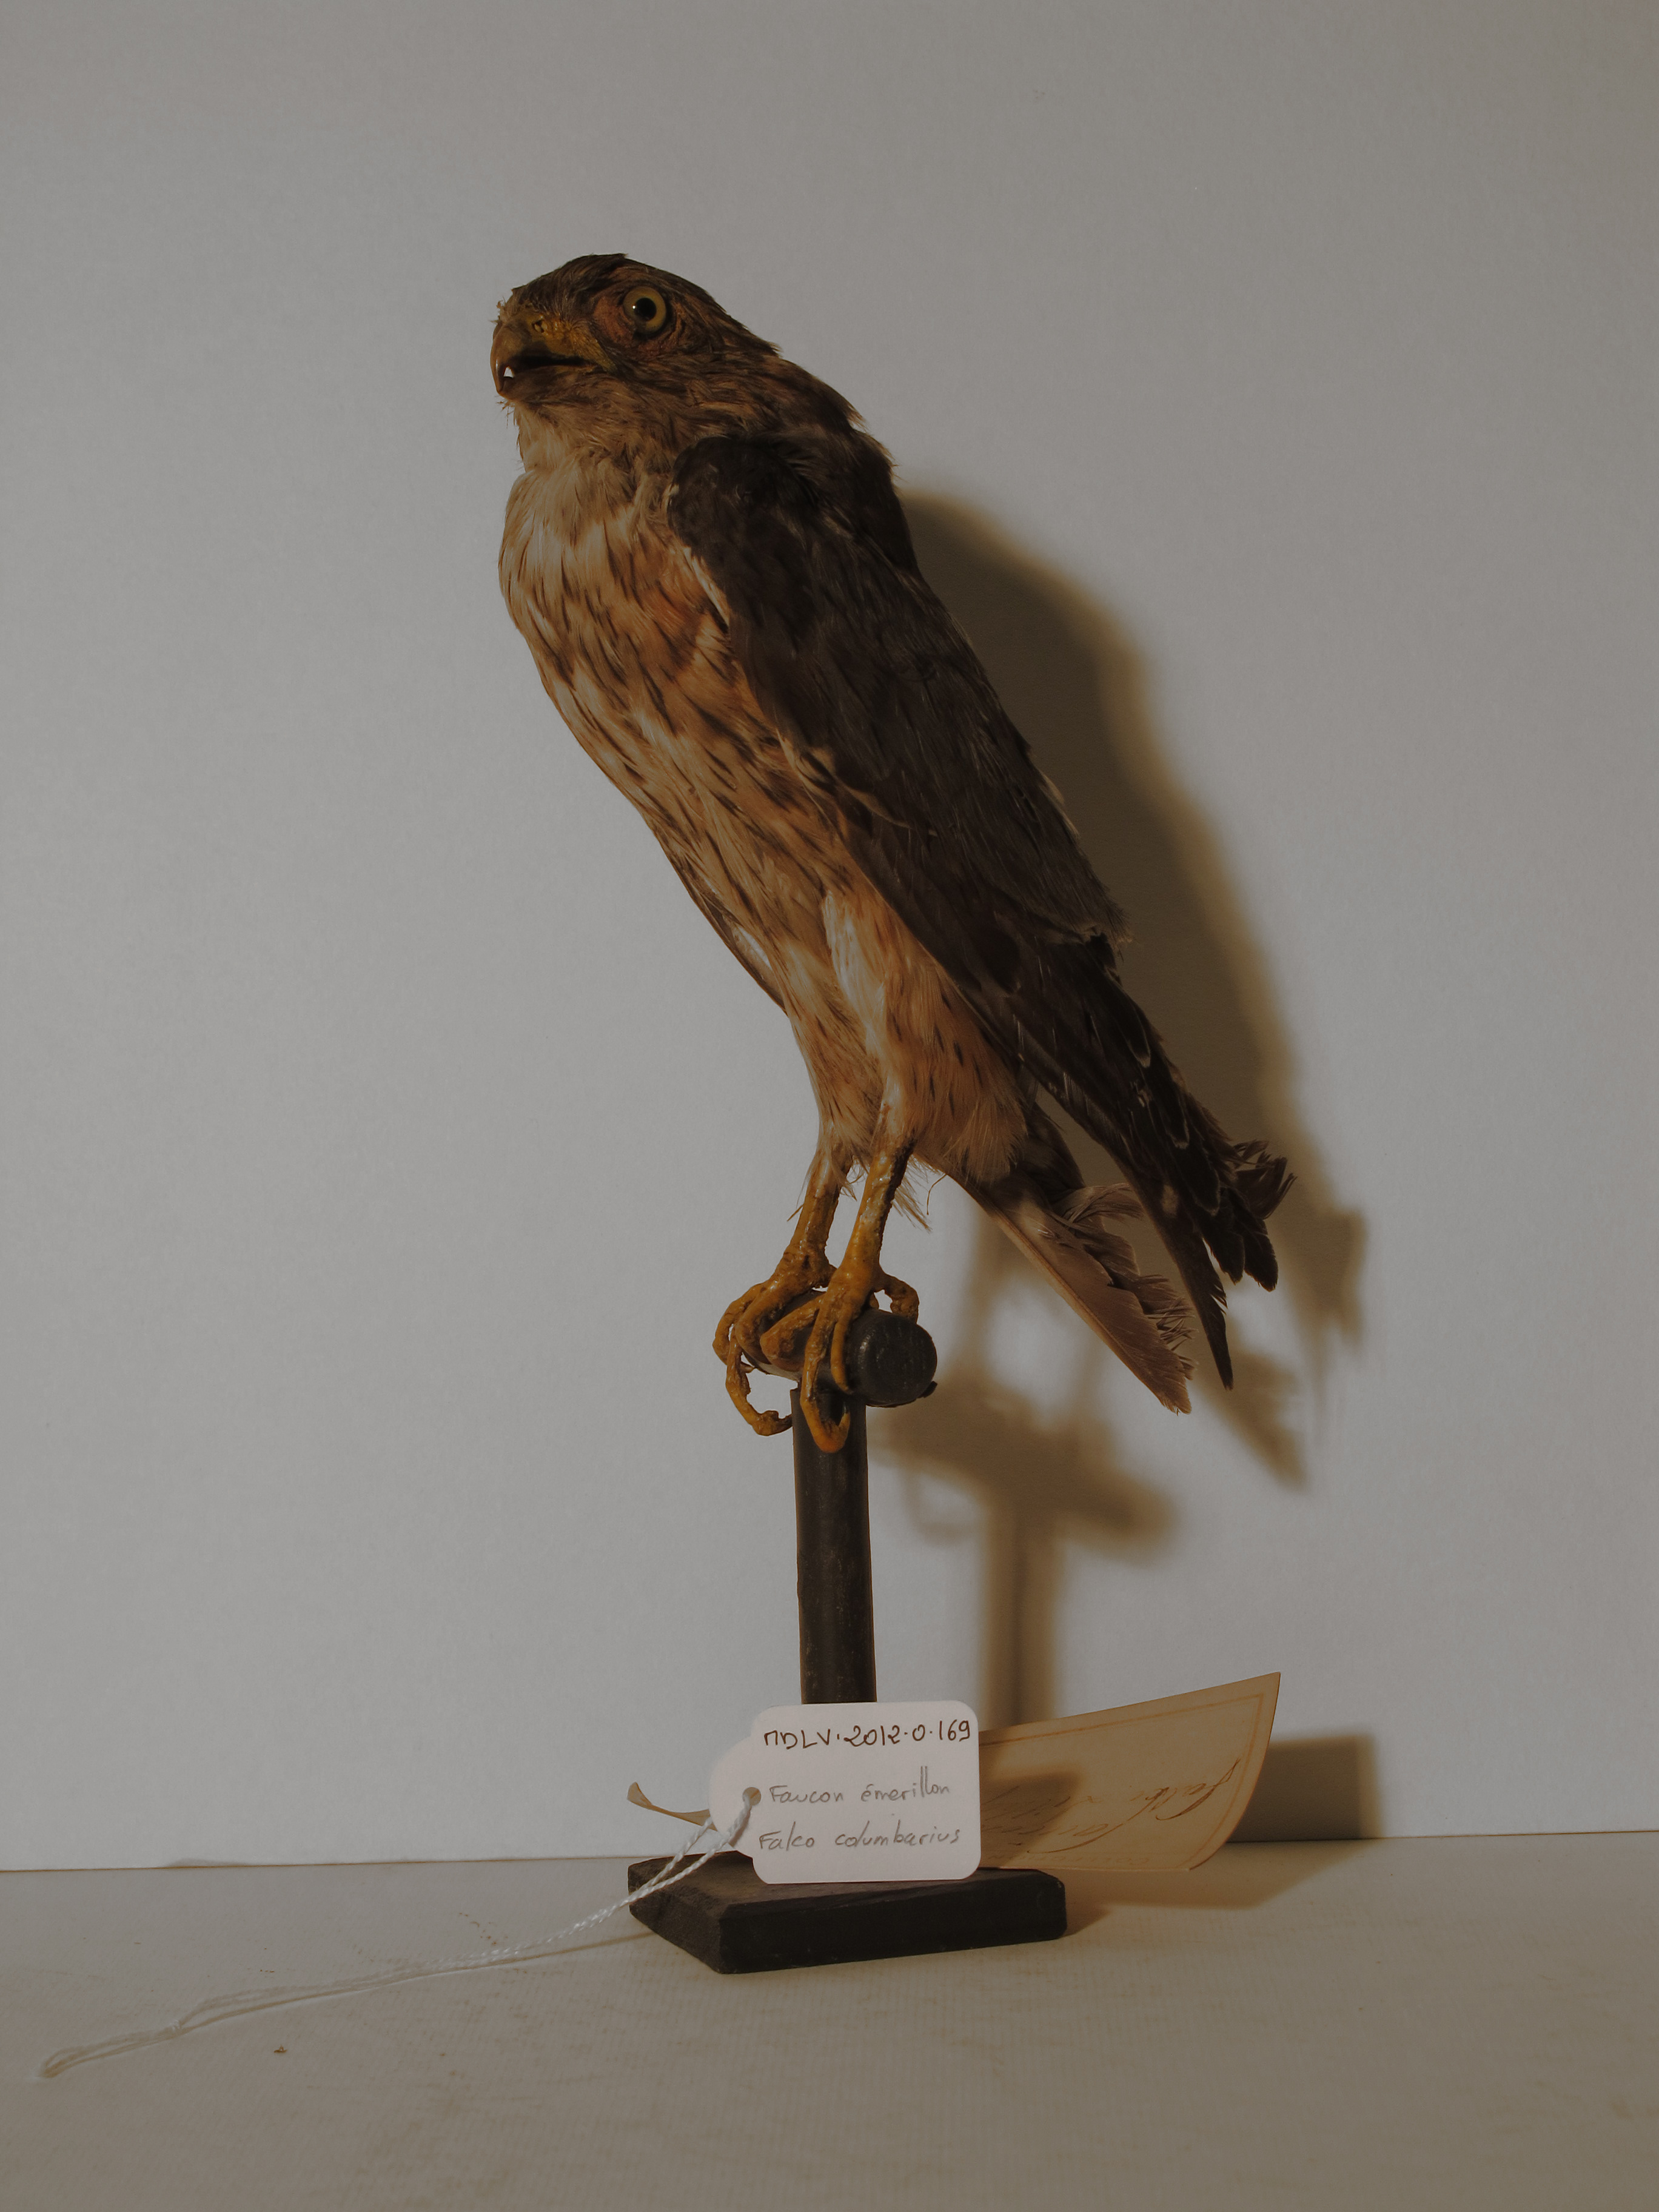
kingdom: Animalia
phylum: Chordata
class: Aves
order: Falconiformes
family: Falconidae
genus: Falco
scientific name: Falco columbarius
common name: Merlin
